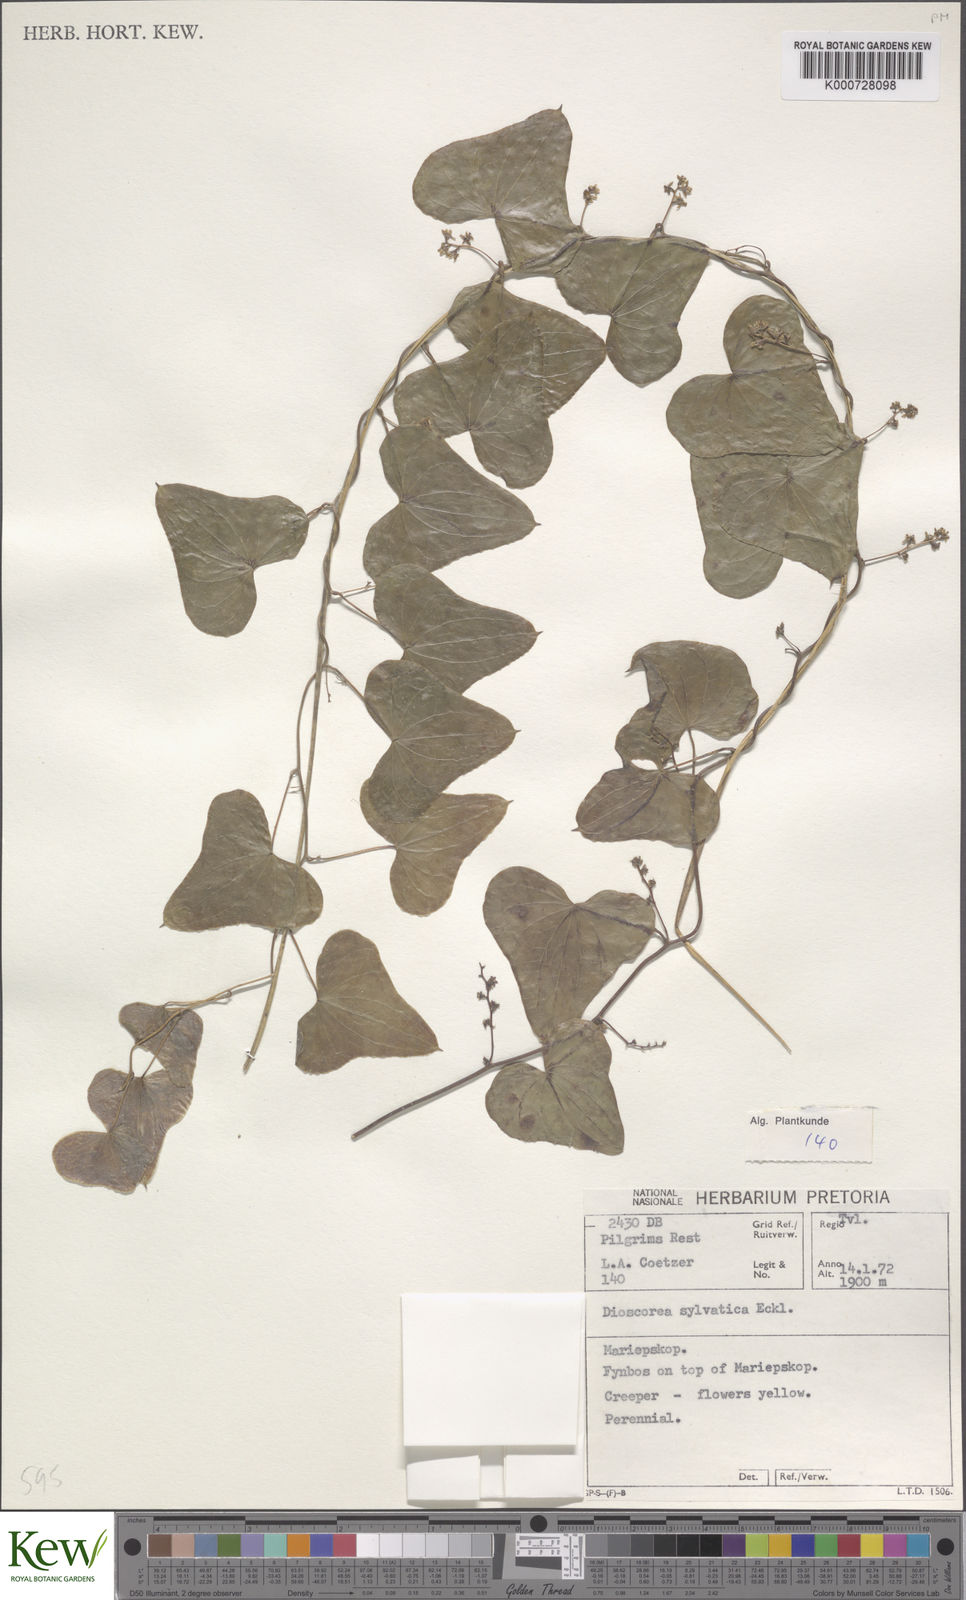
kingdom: Plantae
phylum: Tracheophyta
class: Liliopsida
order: Dioscoreales
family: Dioscoreaceae
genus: Dioscorea
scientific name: Dioscorea sylvatica
